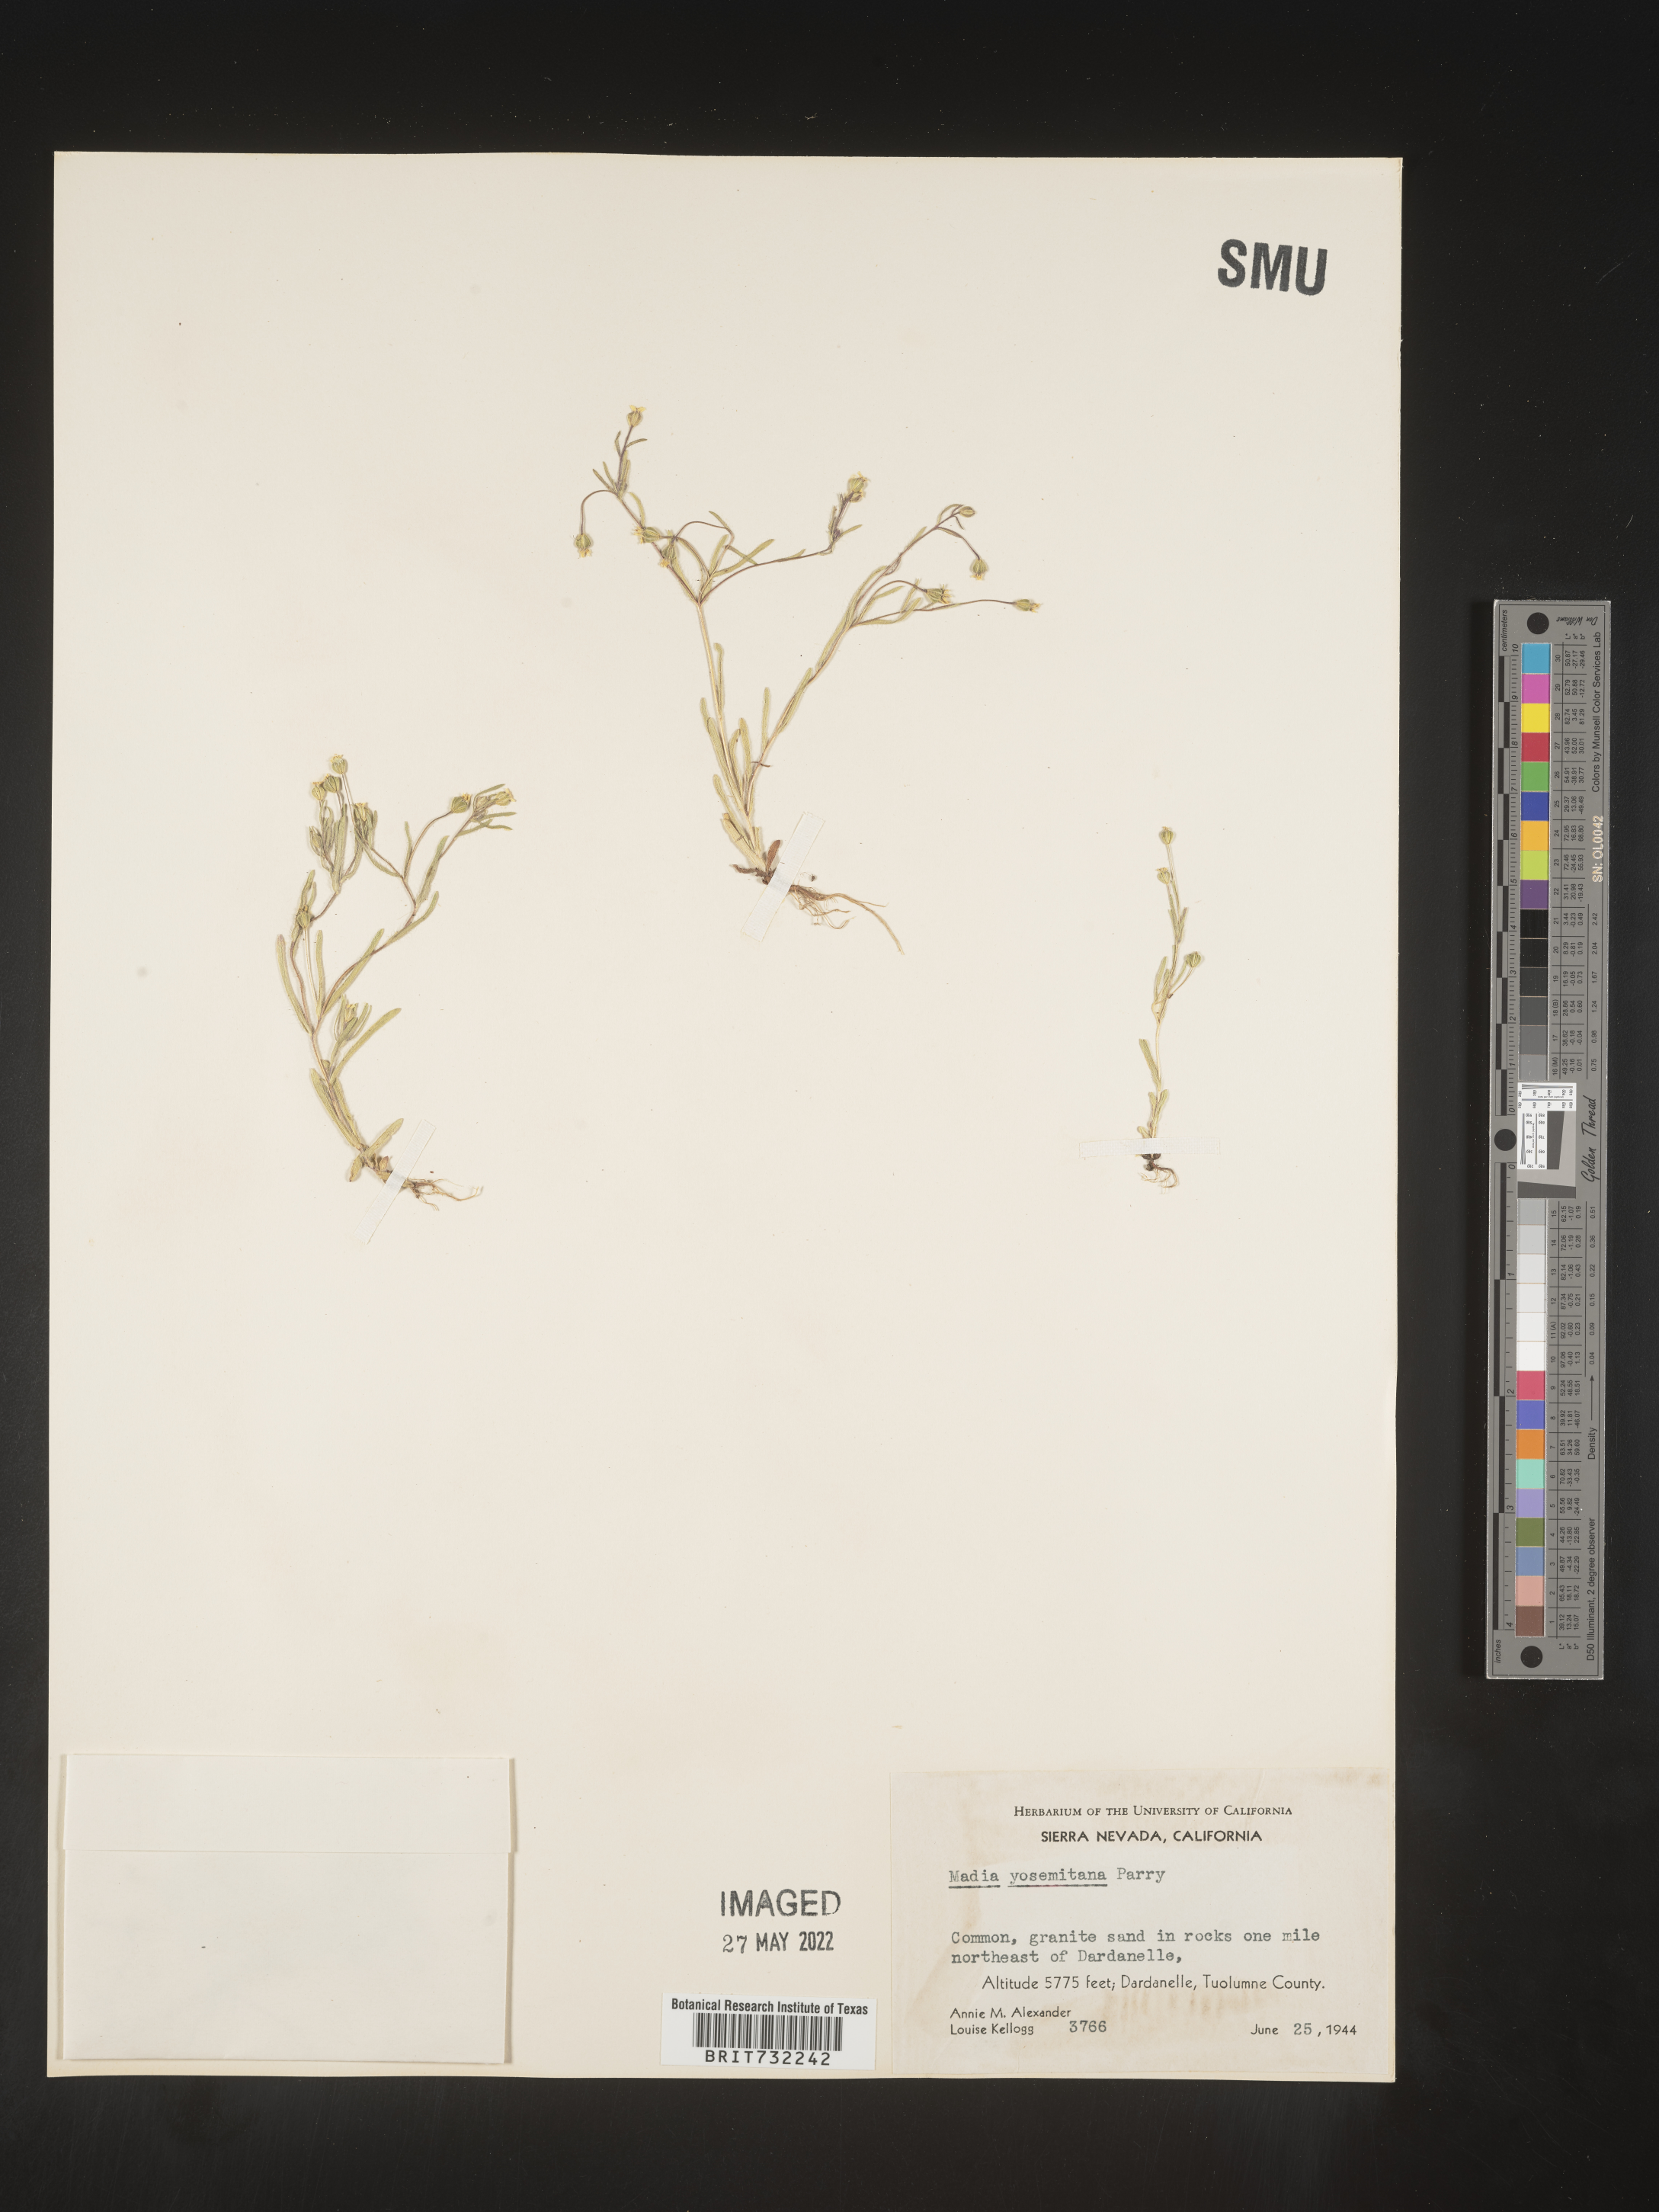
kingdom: Plantae
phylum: Tracheophyta
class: Magnoliopsida
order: Asterales
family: Asteraceae
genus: Madia
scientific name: Madia
